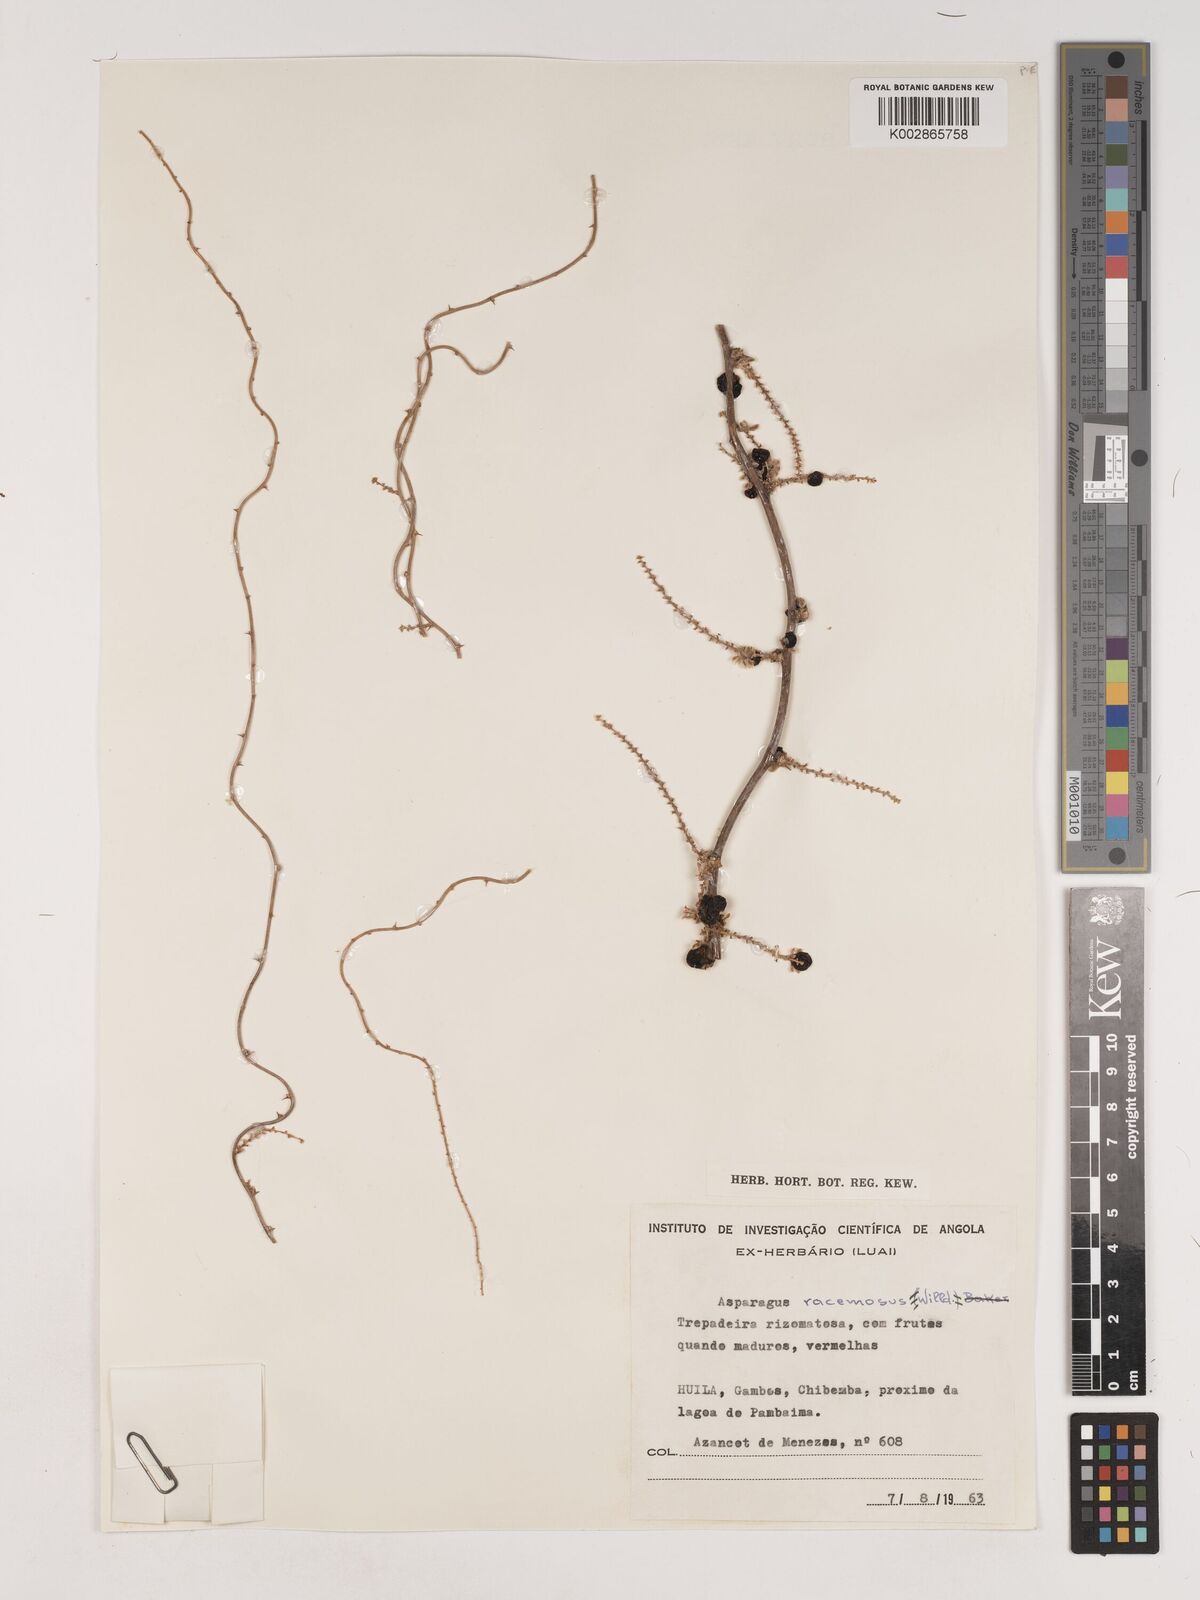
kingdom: Plantae
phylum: Tracheophyta
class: Liliopsida
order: Asparagales
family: Asparagaceae
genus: Asparagus
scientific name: Asparagus racemosus
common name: Asparagus-fern
